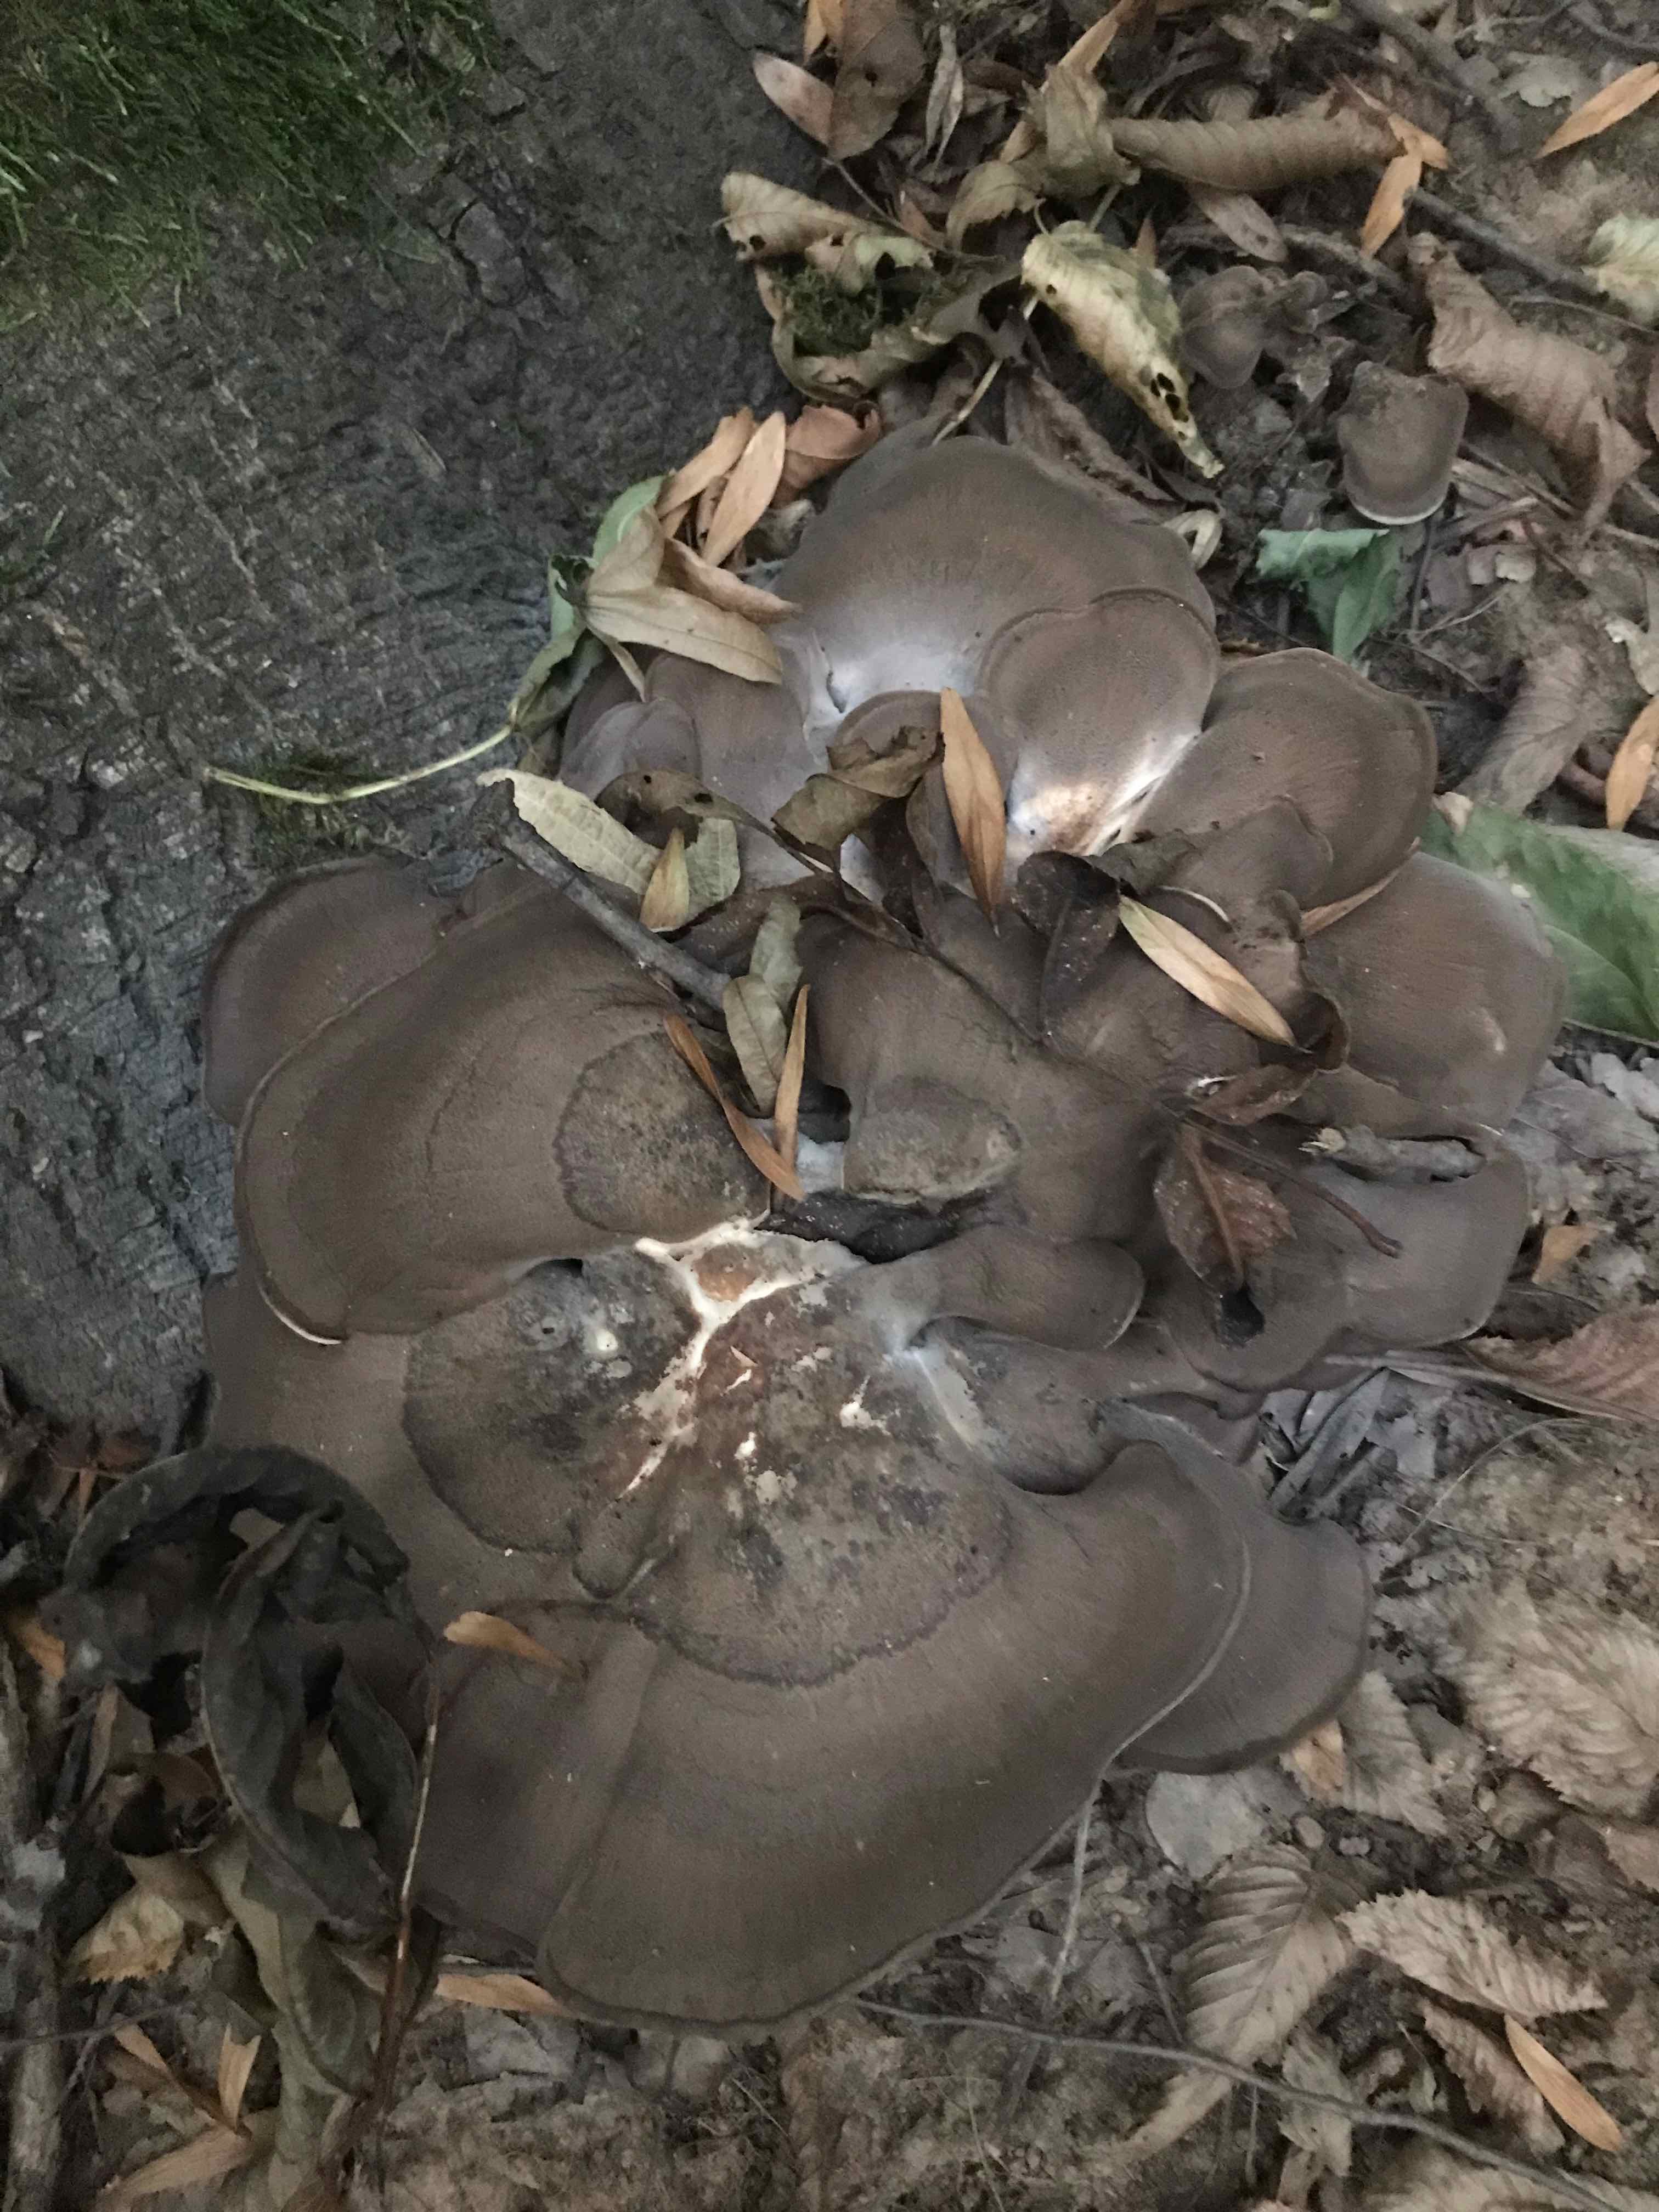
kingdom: Fungi
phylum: Basidiomycota
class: Agaricomycetes
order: Polyporales
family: Meripilaceae
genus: Meripilus
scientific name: Meripilus giganteus
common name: kæmpeporesvamp
